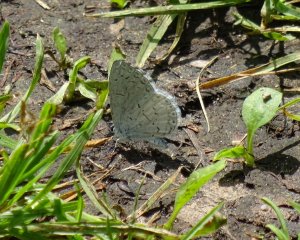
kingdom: Animalia
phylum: Arthropoda
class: Insecta
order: Lepidoptera
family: Lycaenidae
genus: Cyaniris
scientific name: Cyaniris neglecta
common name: Summer Azure
